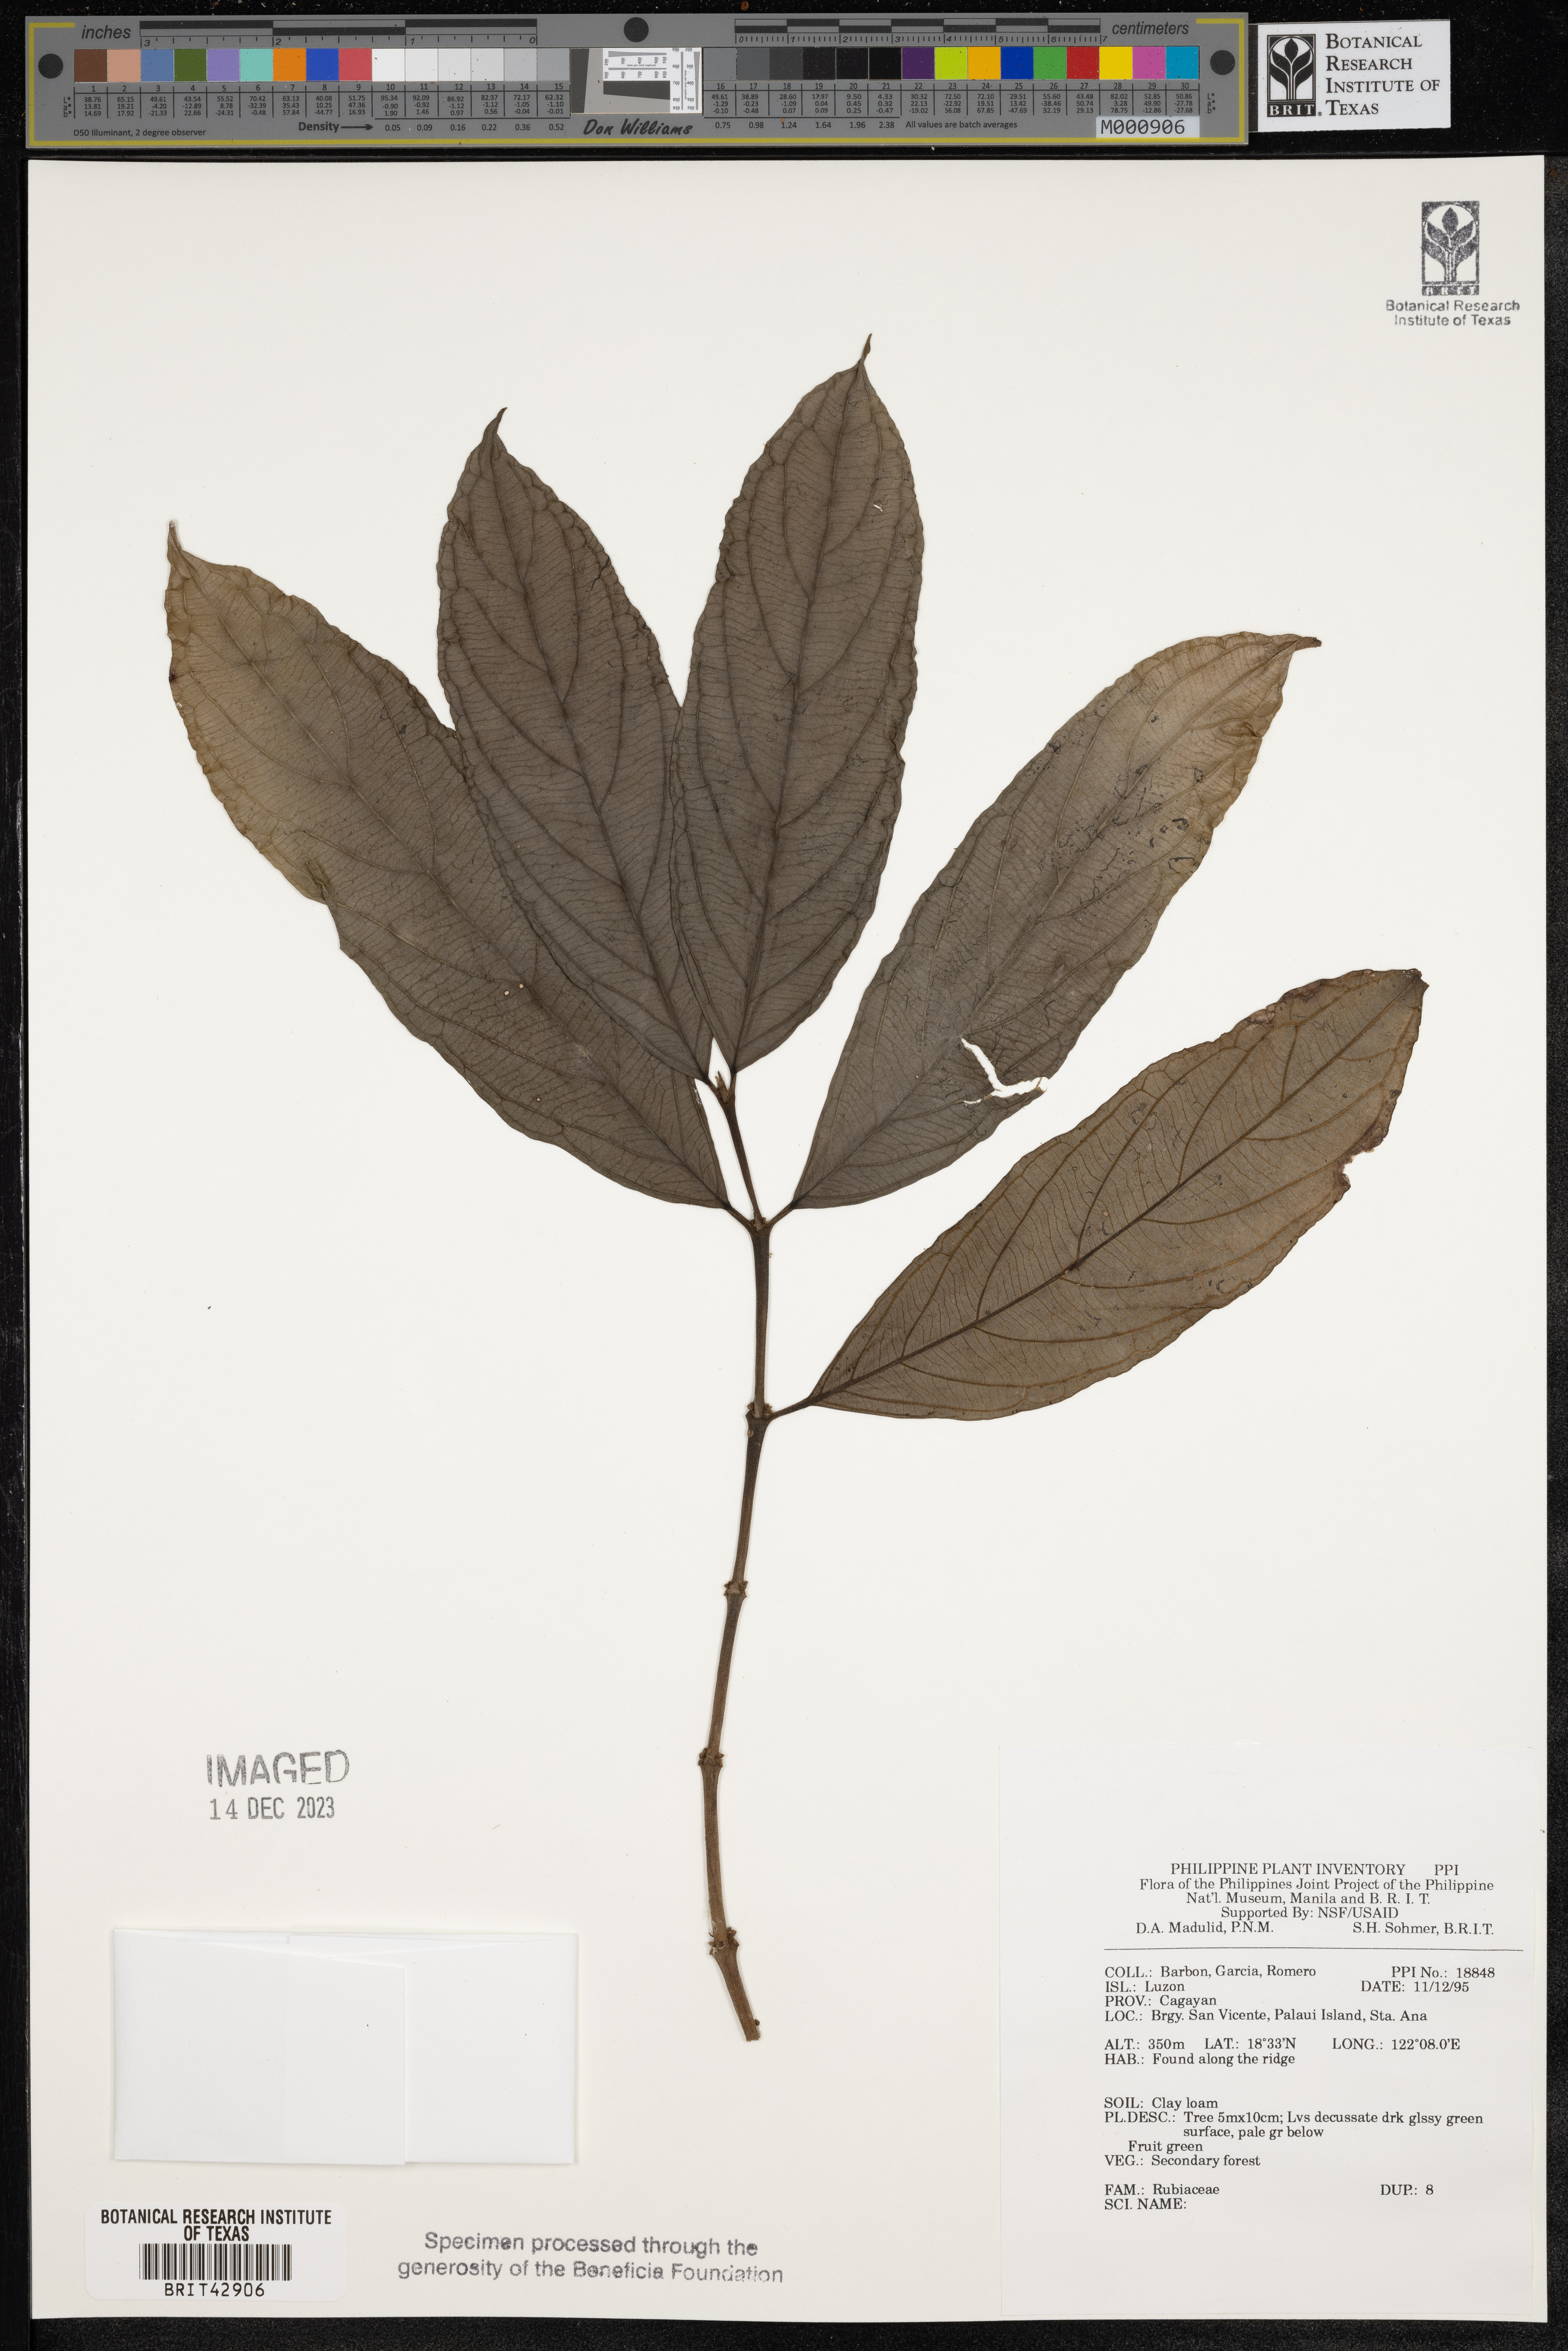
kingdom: Plantae
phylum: Tracheophyta
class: Magnoliopsida
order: Gentianales
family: Rubiaceae
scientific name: Rubiaceae
